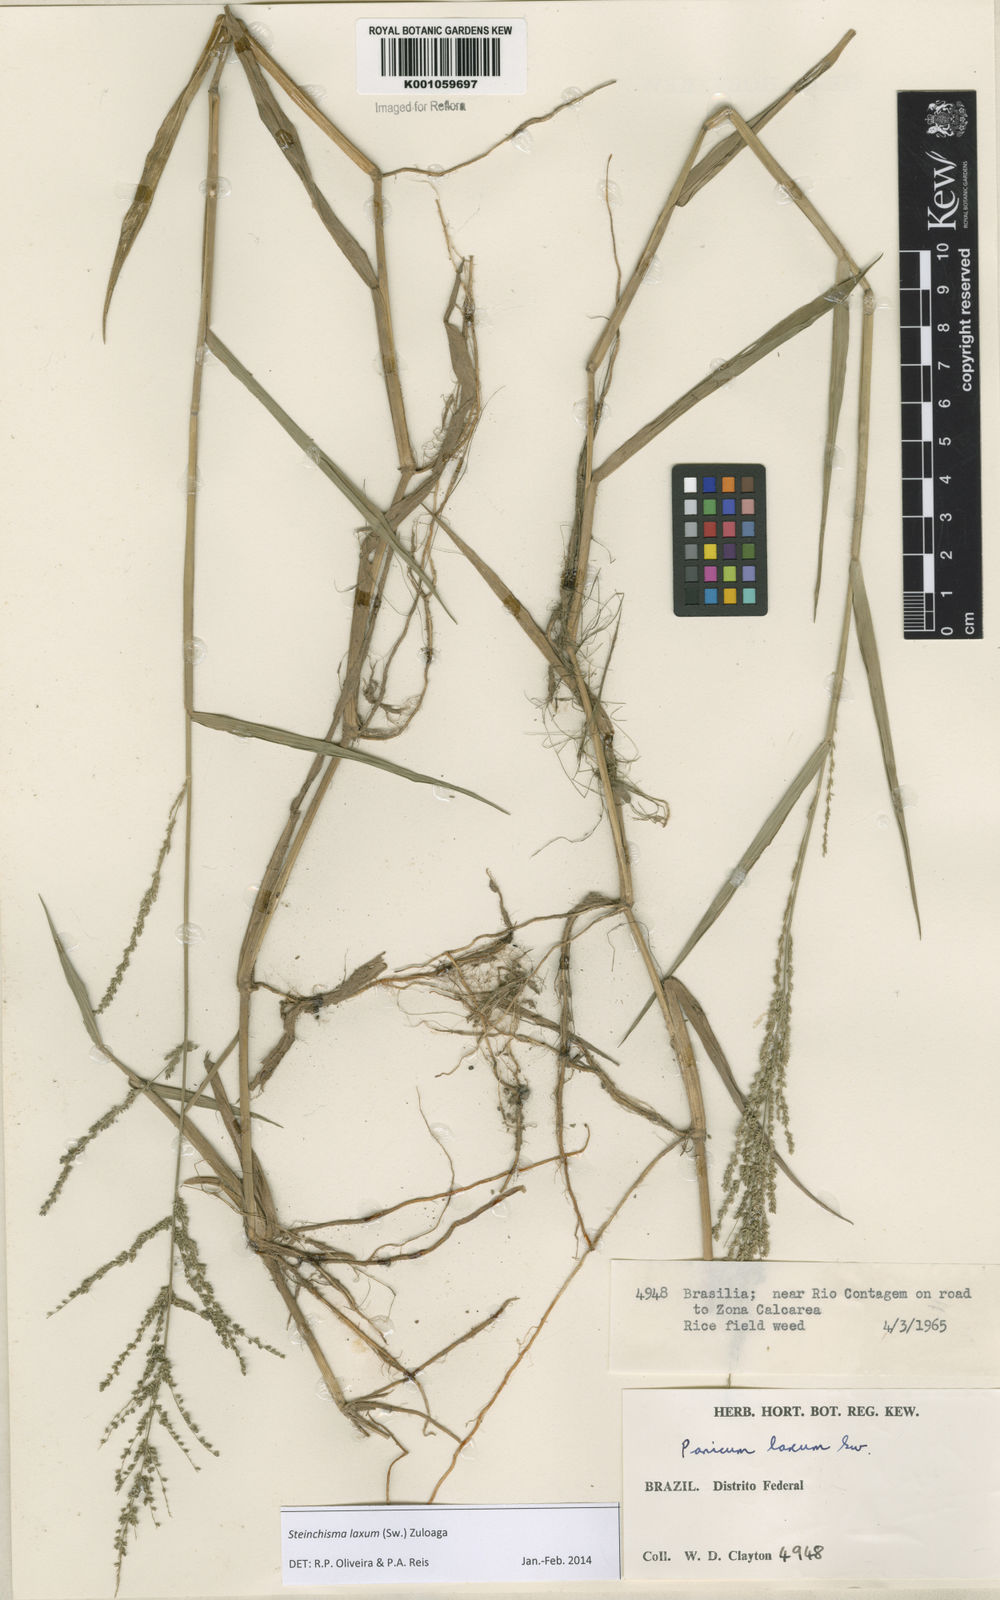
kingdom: Plantae
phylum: Tracheophyta
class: Liliopsida
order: Poales
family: Poaceae
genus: Steinchisma
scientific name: Steinchisma laxum
